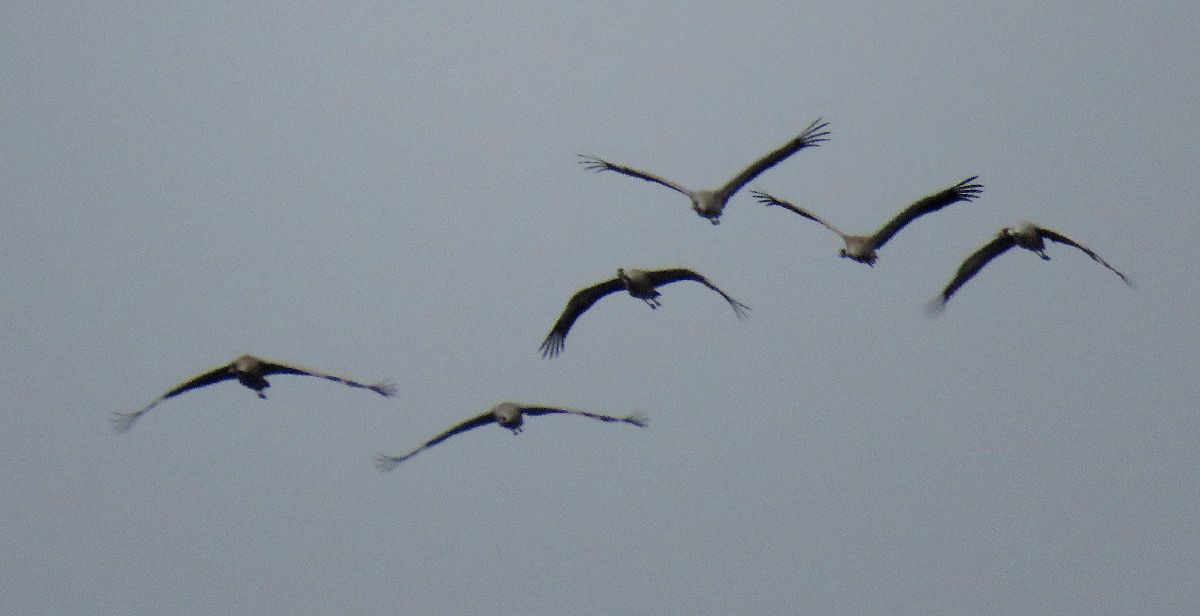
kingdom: Animalia
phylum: Chordata
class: Aves
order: Gruiformes
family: Gruidae
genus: Grus
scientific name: Grus grus
